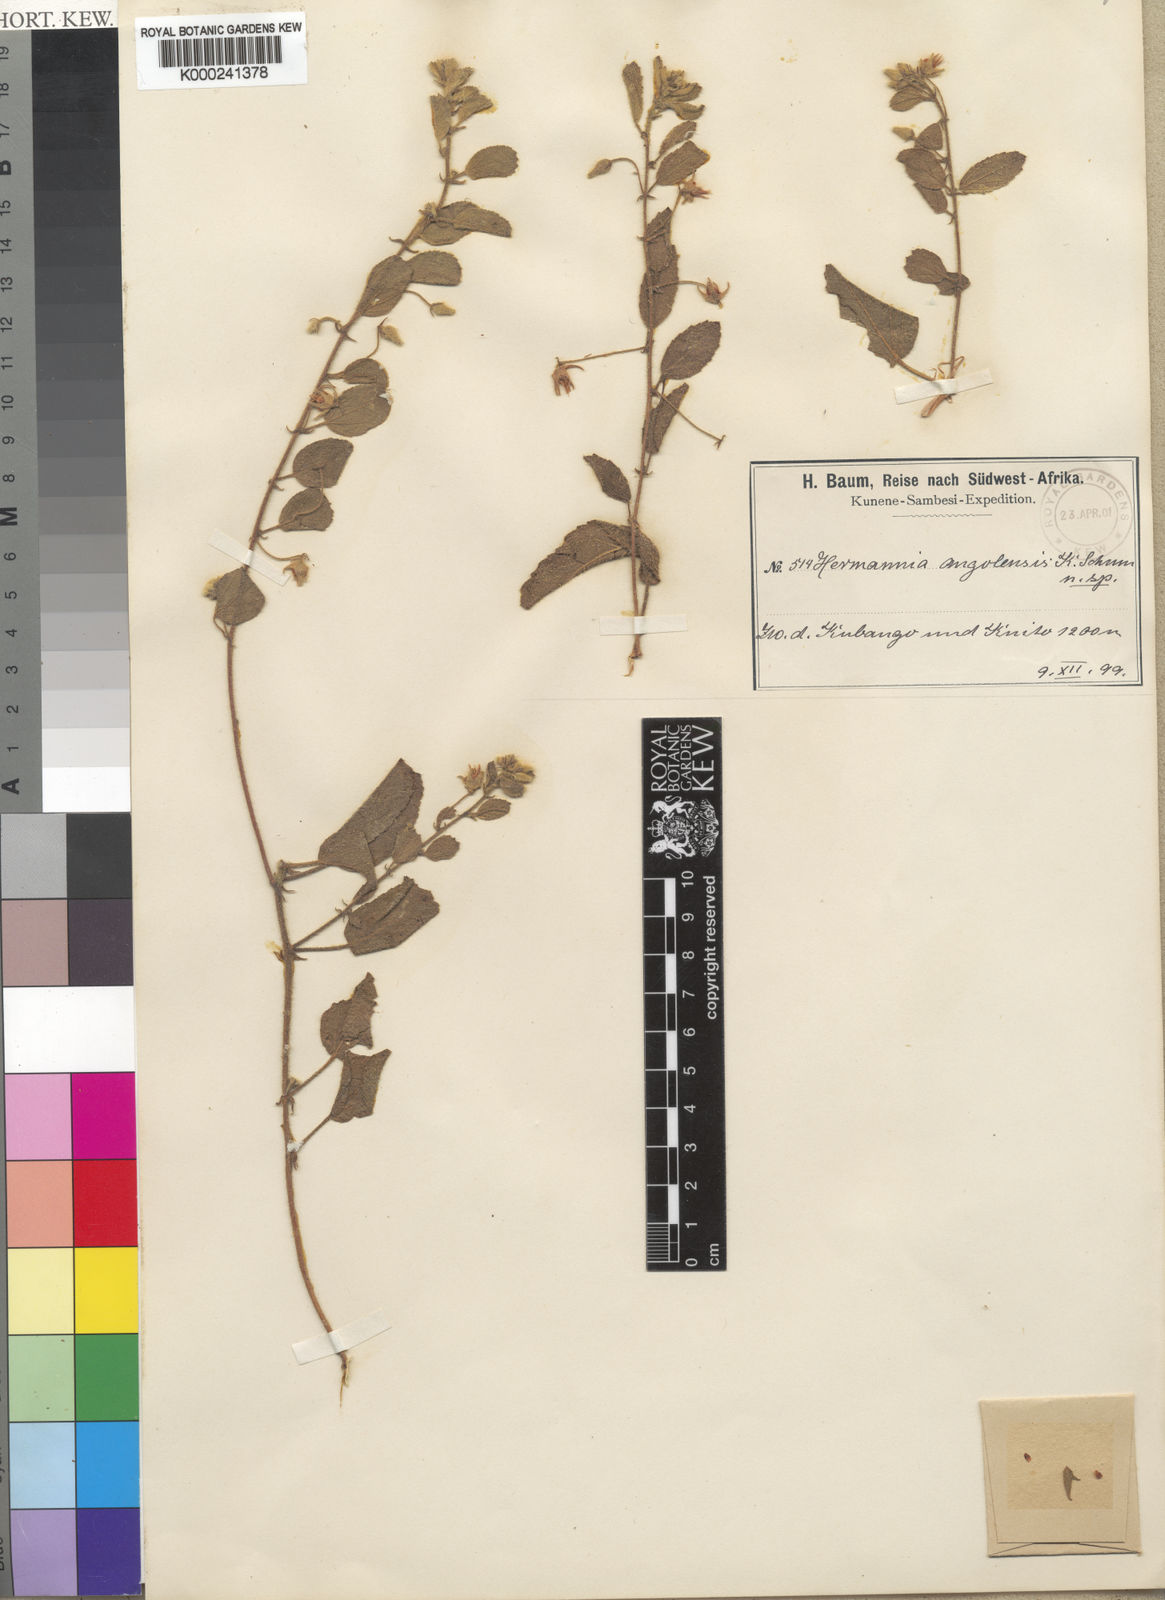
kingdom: Plantae
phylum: Tracheophyta
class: Magnoliopsida
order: Malvales
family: Malvaceae
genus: Hermannia
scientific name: Hermannia eenii
